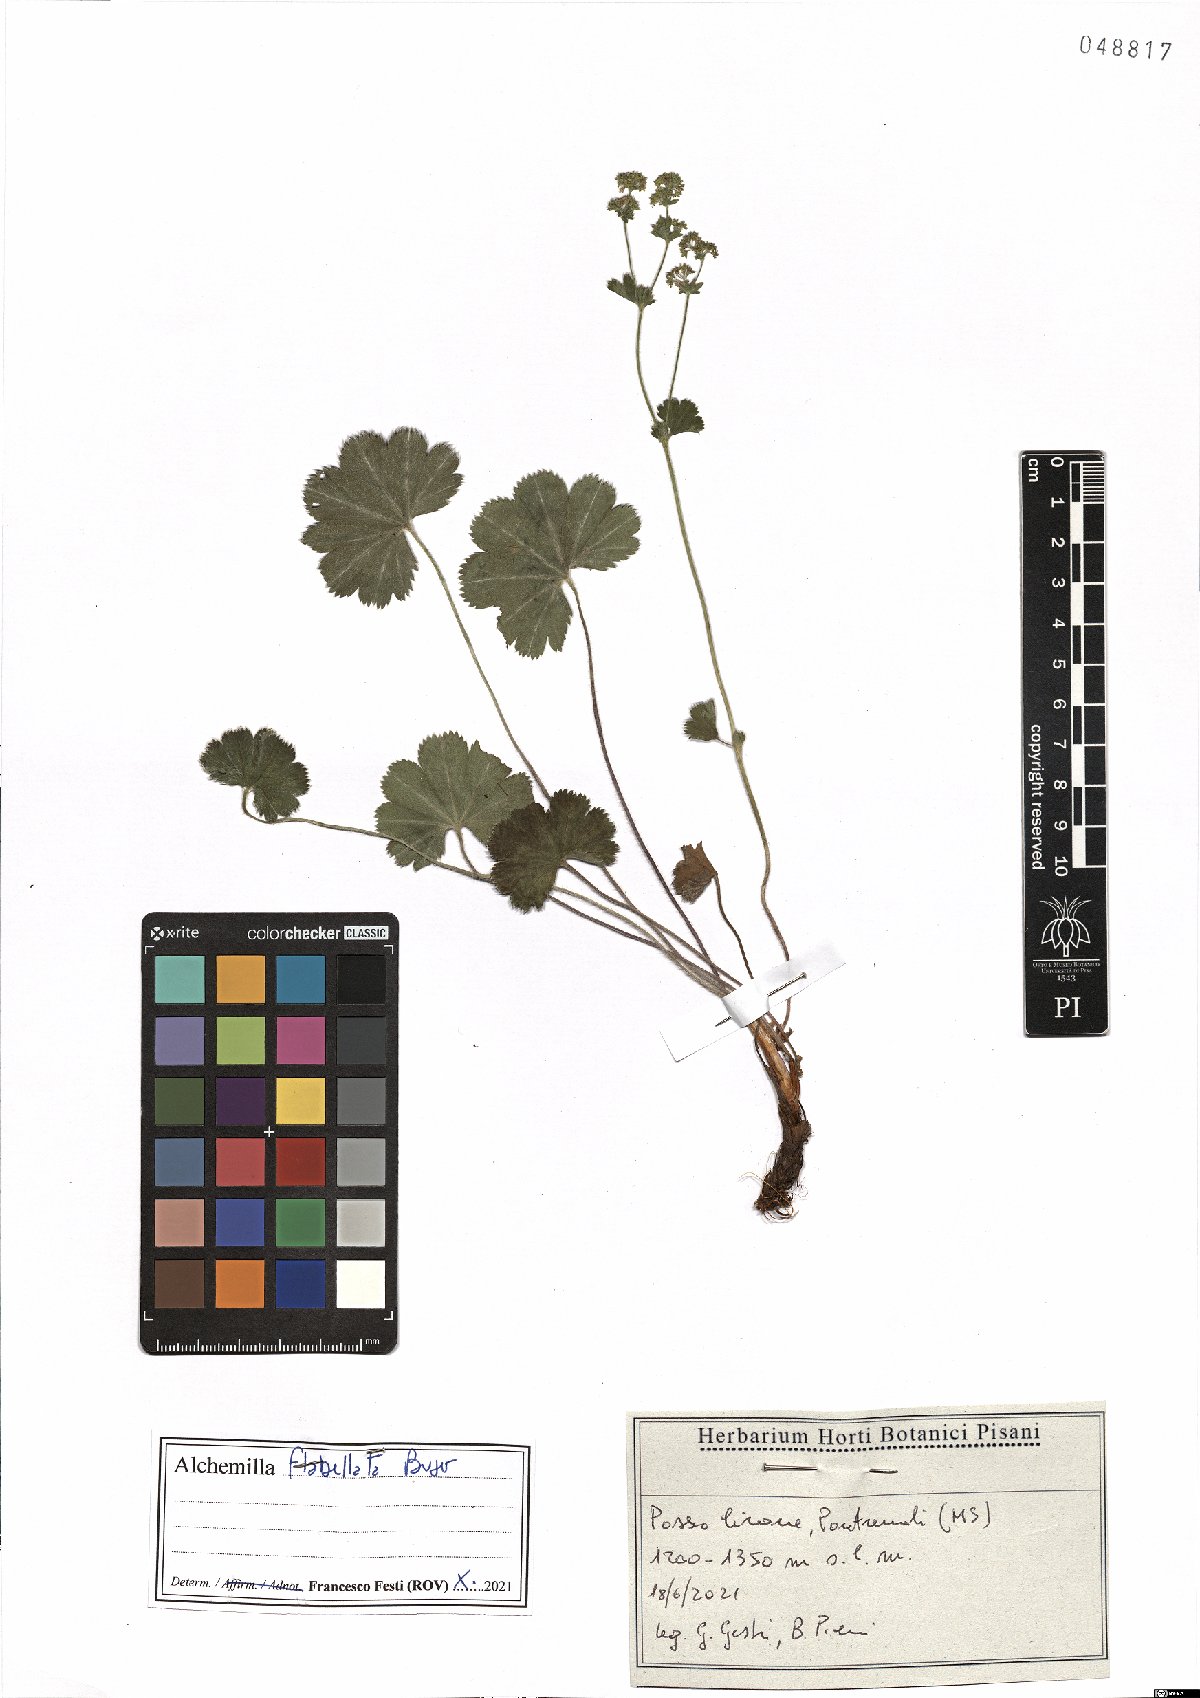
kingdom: Plantae
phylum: Tracheophyta
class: Magnoliopsida
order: Rosales
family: Rosaceae
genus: Alchemilla
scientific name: Alchemilla flabellata
